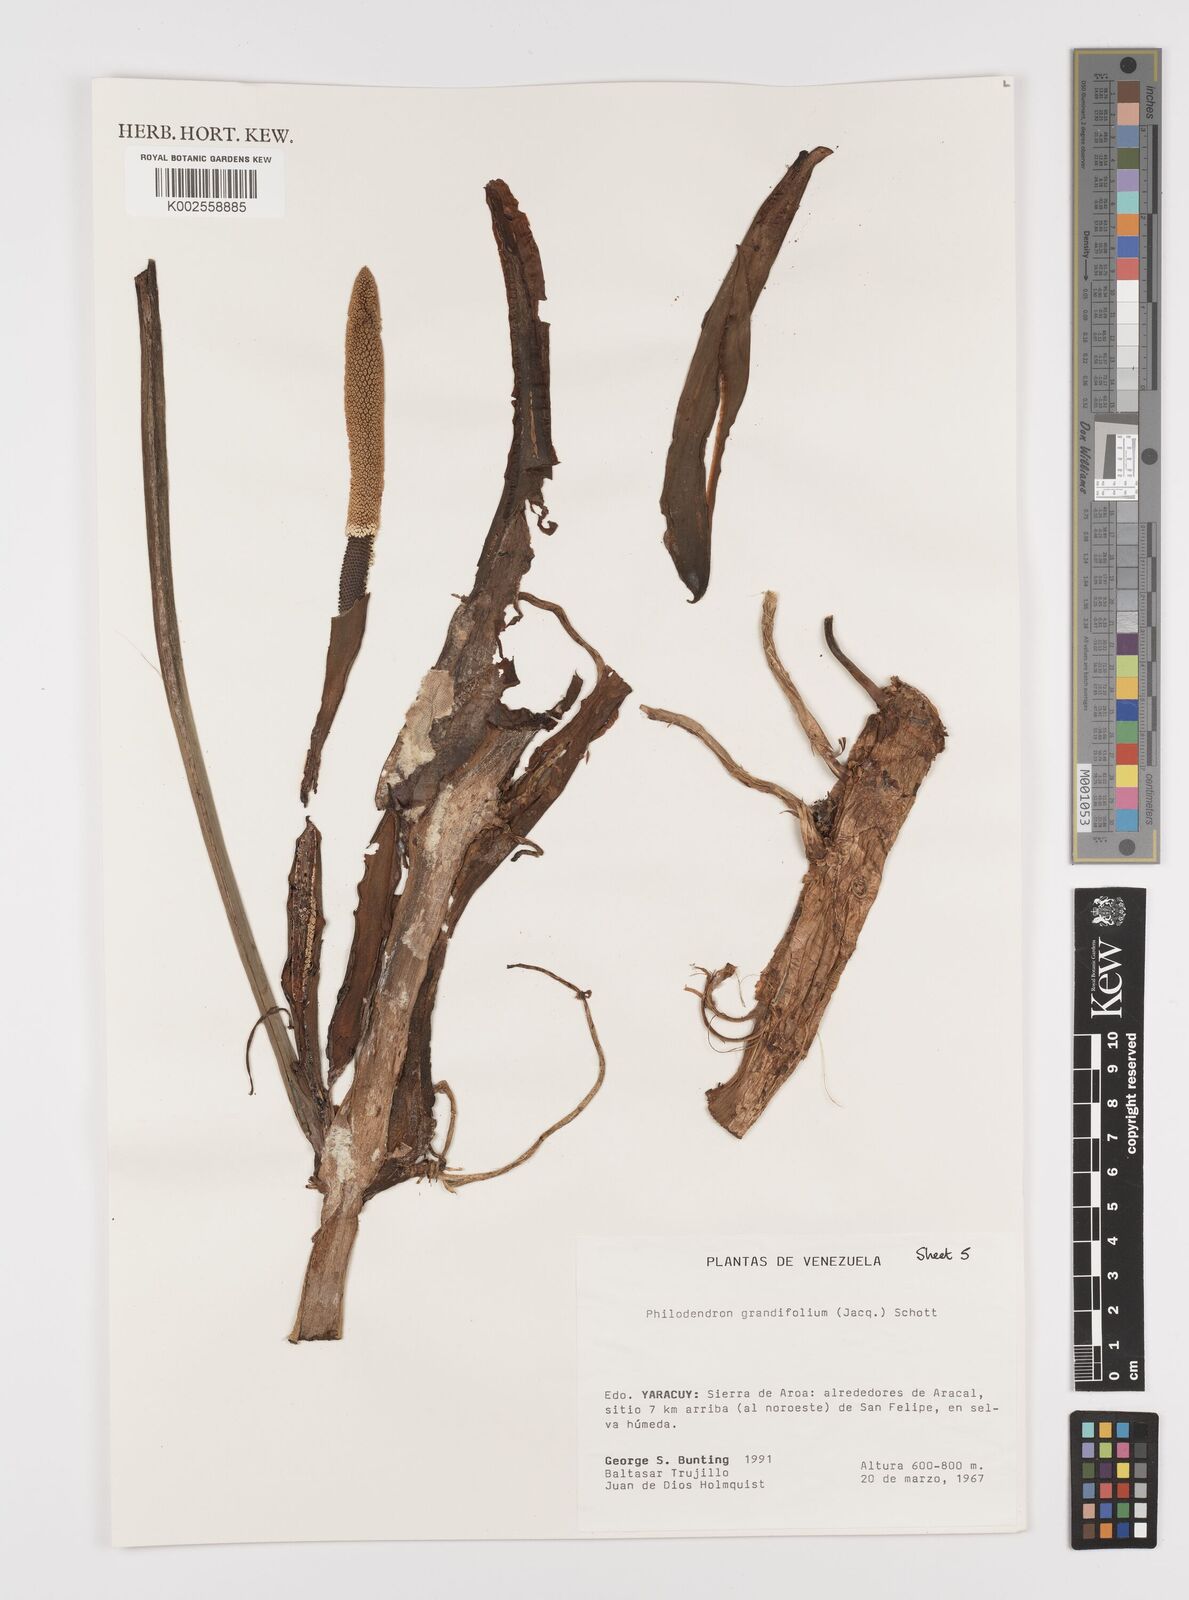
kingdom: Plantae
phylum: Tracheophyta
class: Liliopsida
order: Alismatales
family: Araceae
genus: Philodendron
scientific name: Philodendron grandifolium
